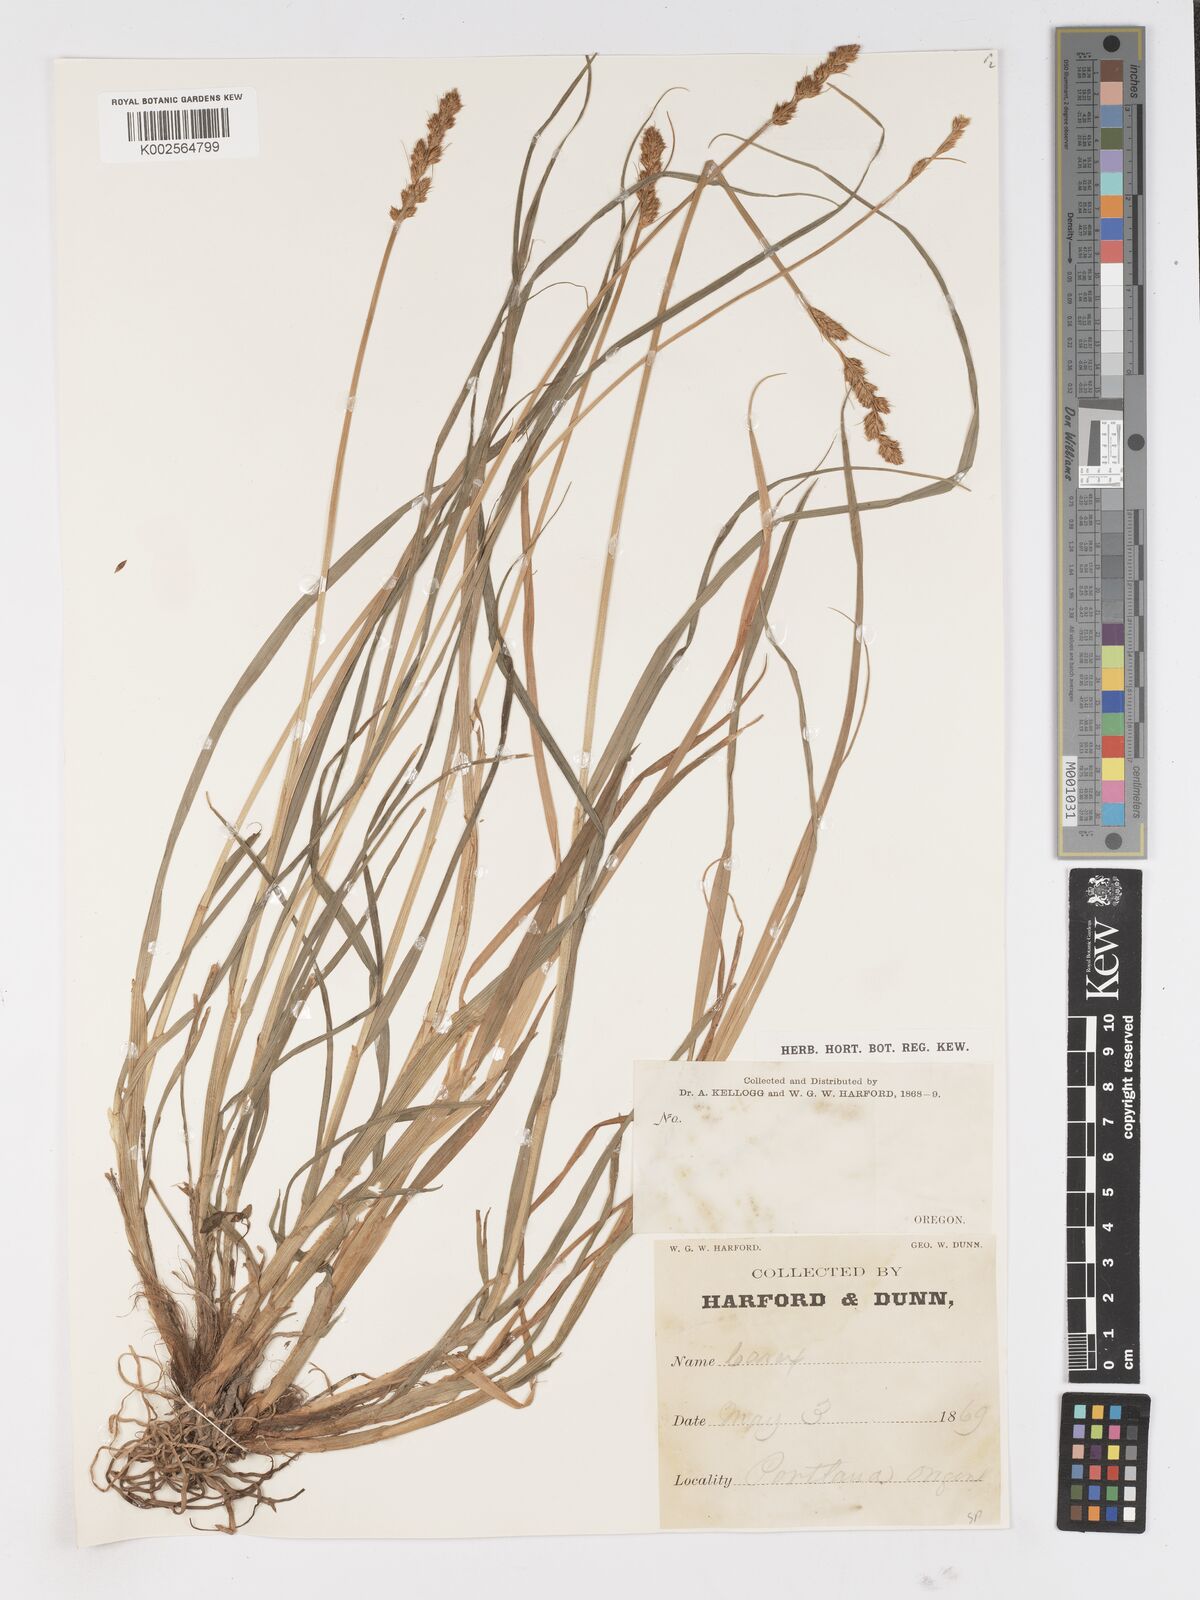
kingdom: Plantae
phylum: Tracheophyta
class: Liliopsida
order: Poales
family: Cyperaceae
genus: Carex
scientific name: Carex
